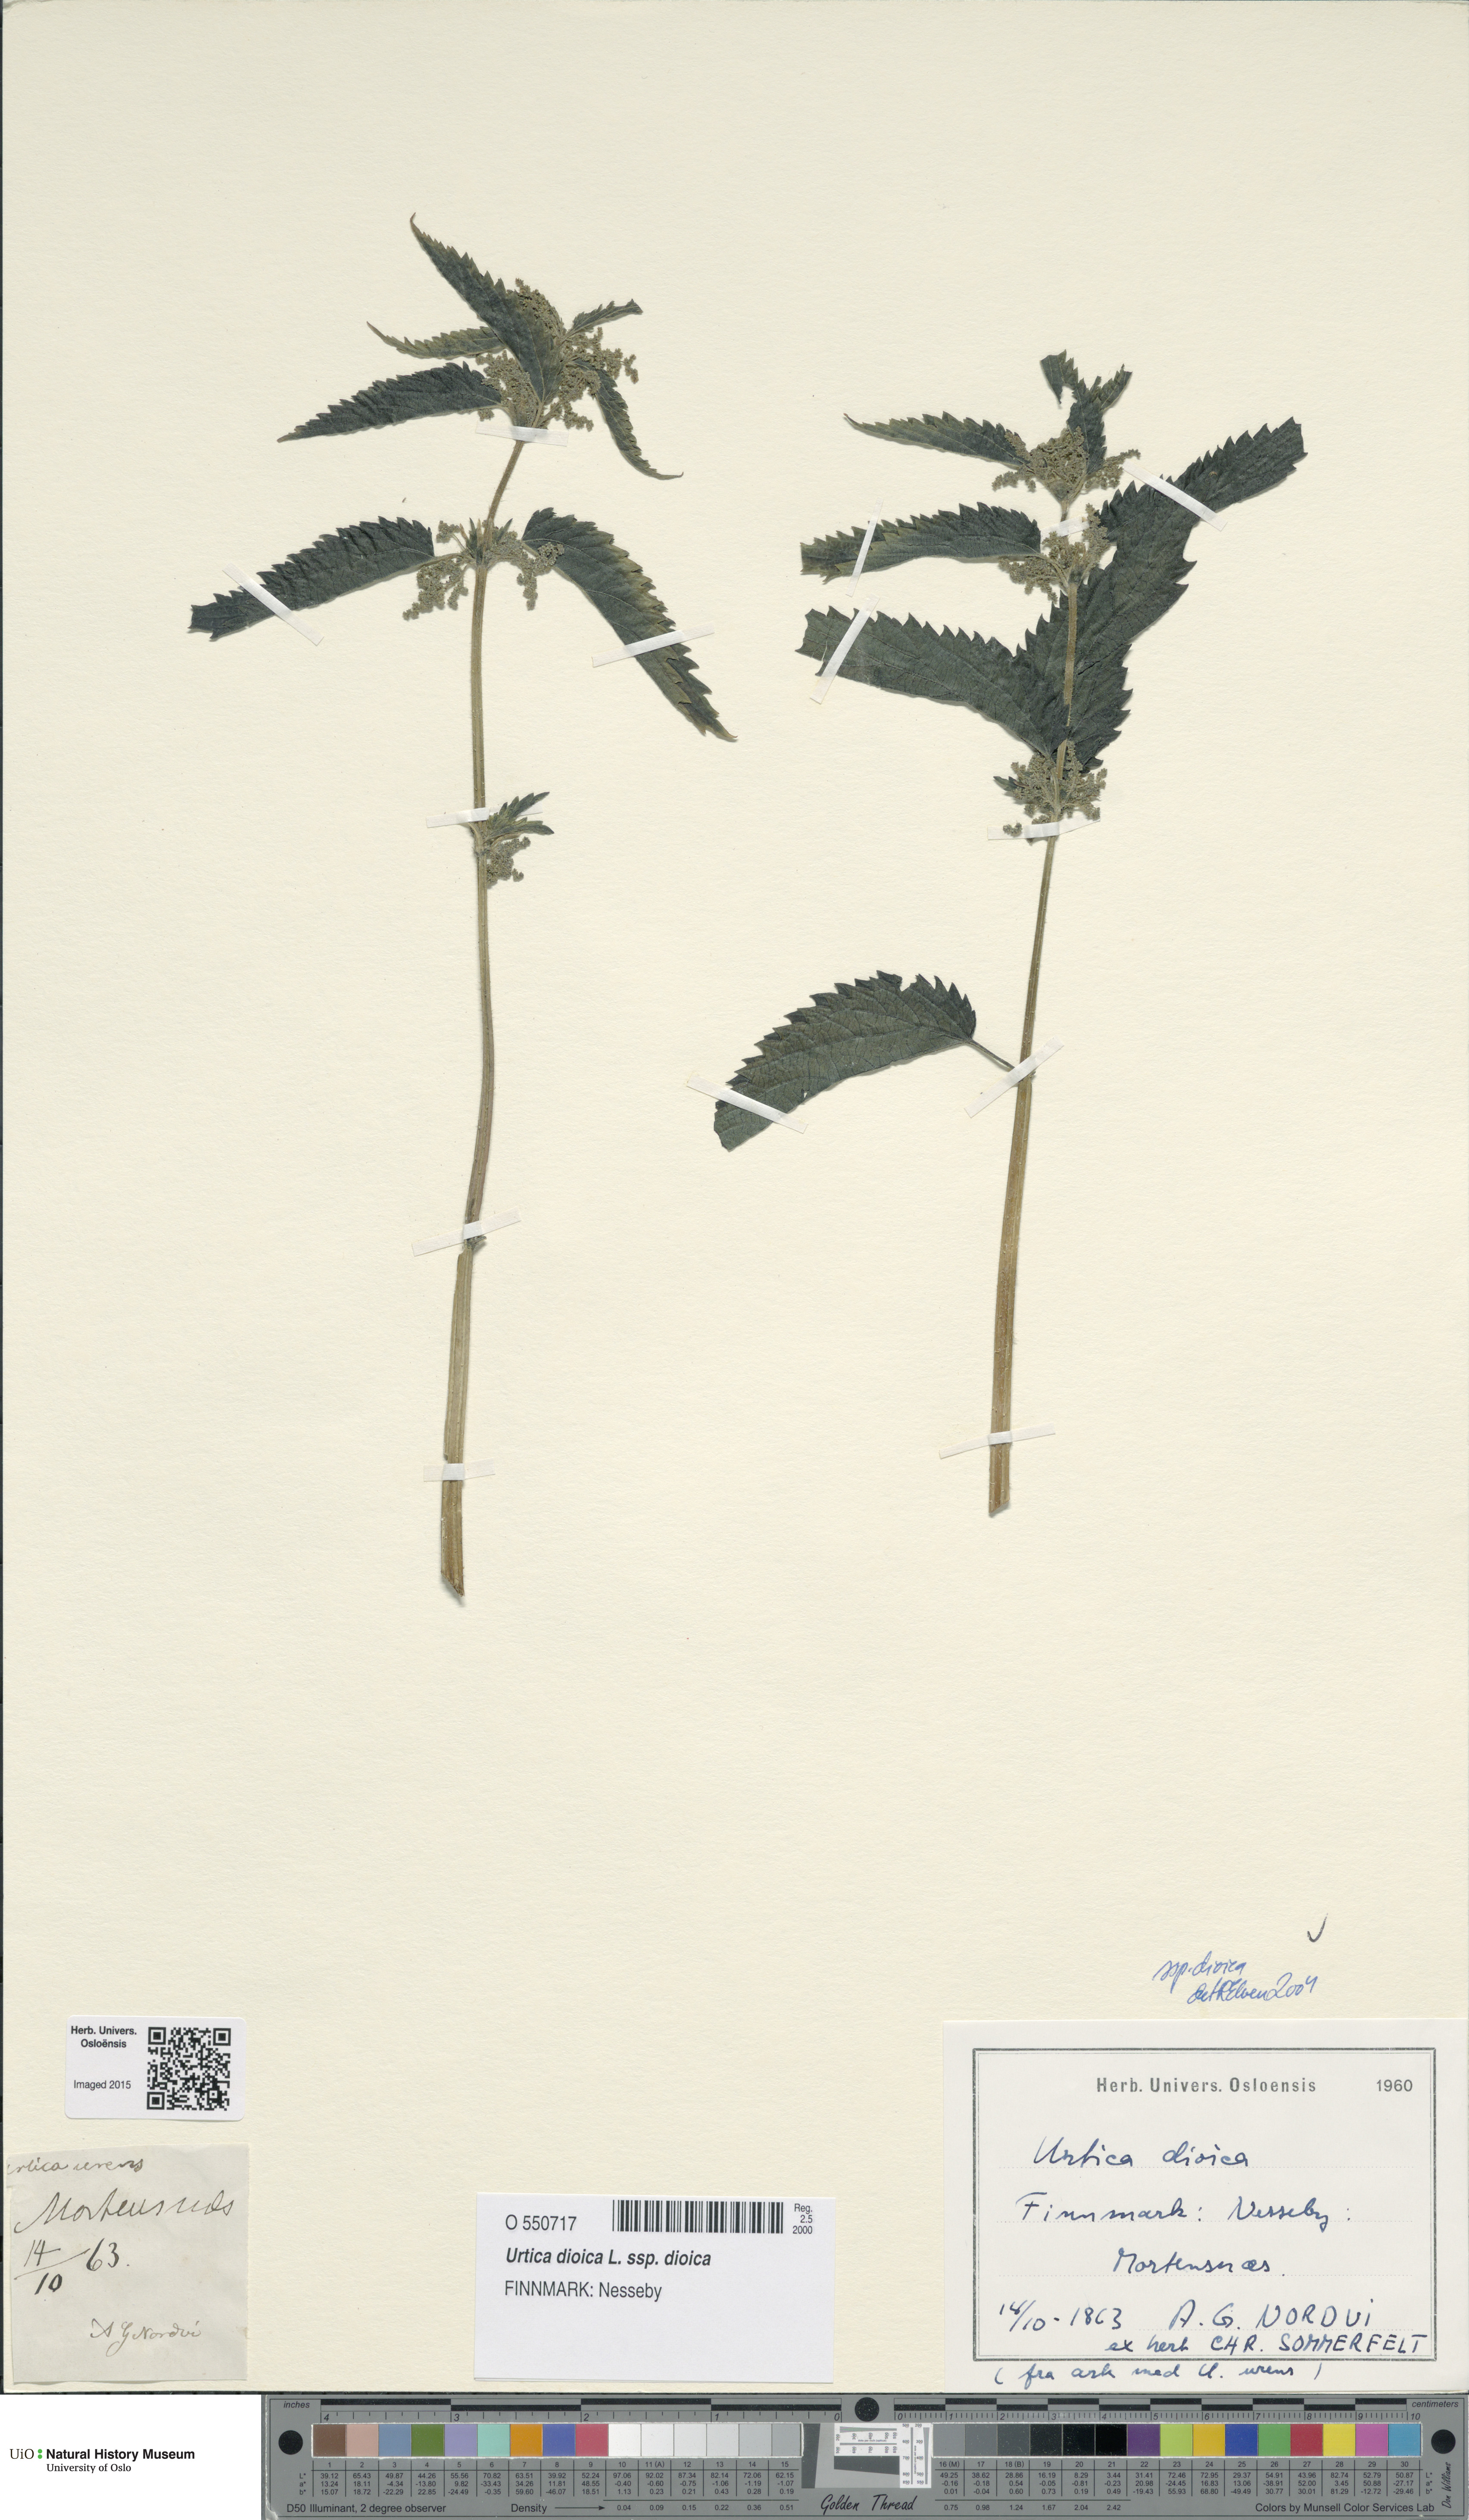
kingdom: Plantae
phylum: Tracheophyta
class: Magnoliopsida
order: Rosales
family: Urticaceae
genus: Urtica
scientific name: Urtica dioica
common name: Common nettle
